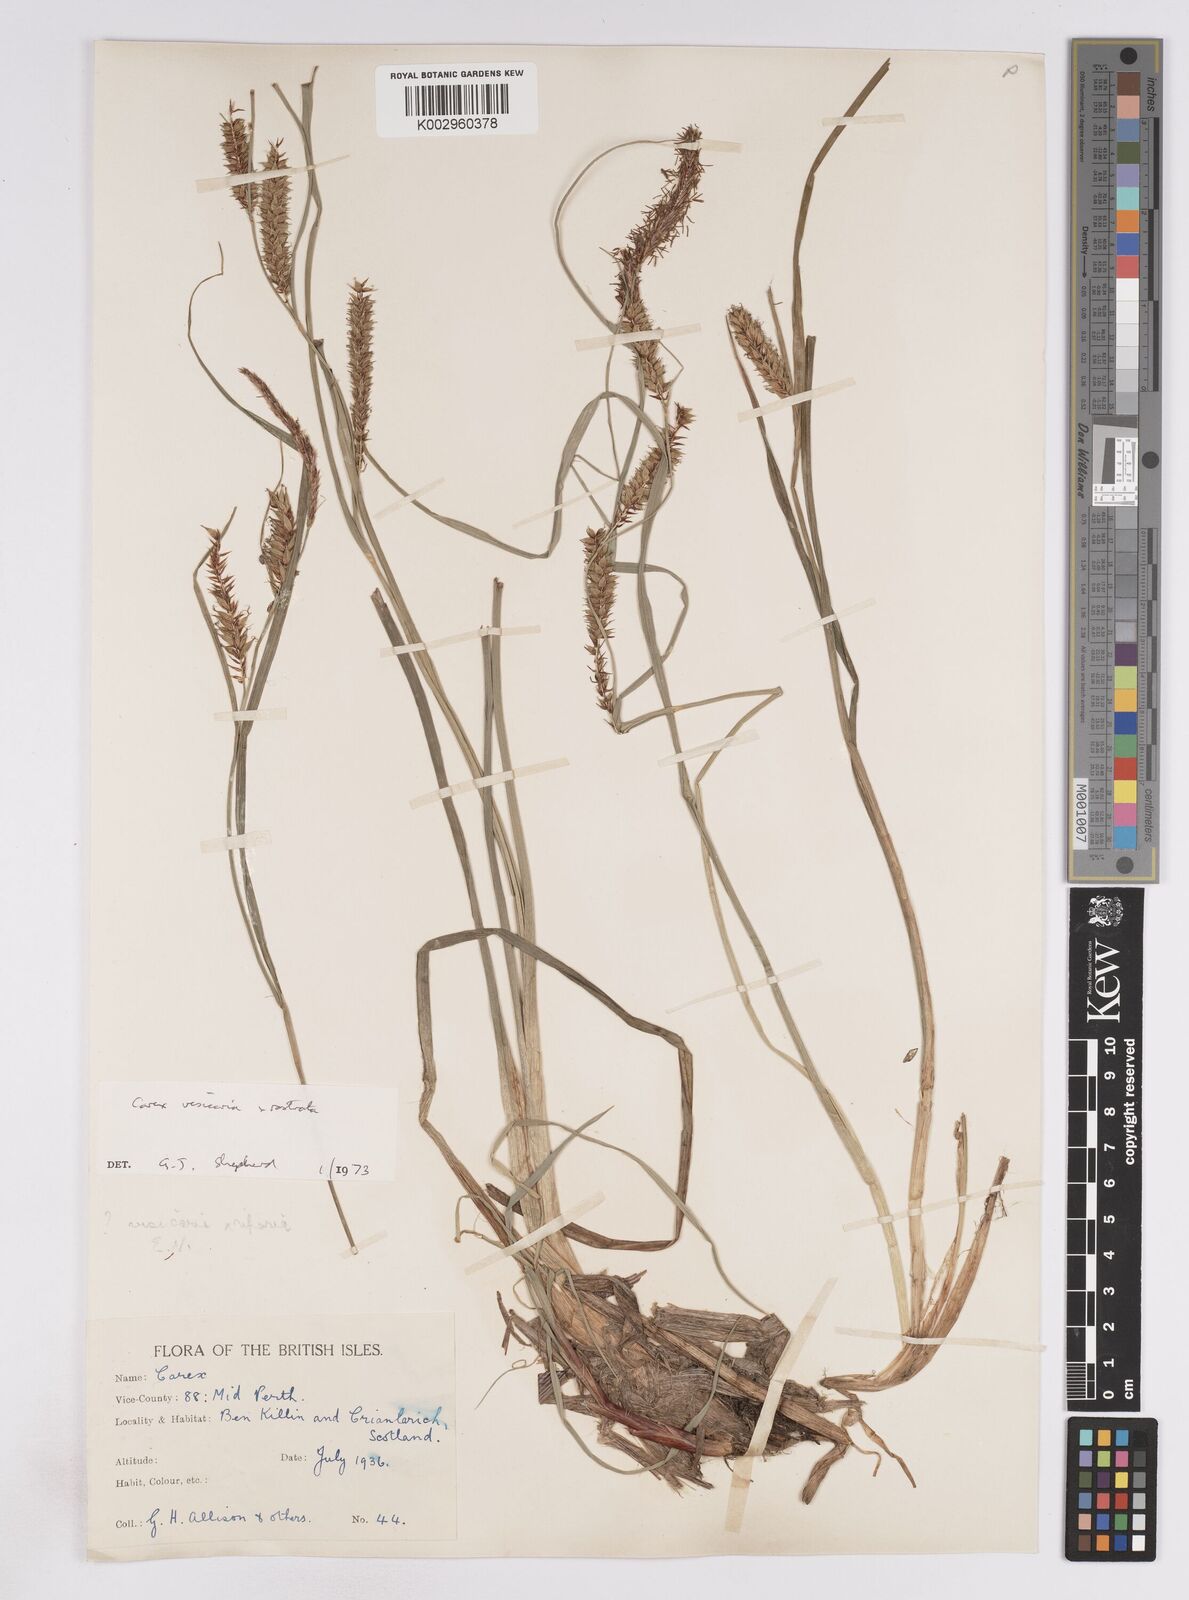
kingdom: Plantae
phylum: Tracheophyta
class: Liliopsida
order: Poales
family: Cyperaceae
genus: Carex
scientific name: Carex vesicaria
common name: Bladder-sedge
